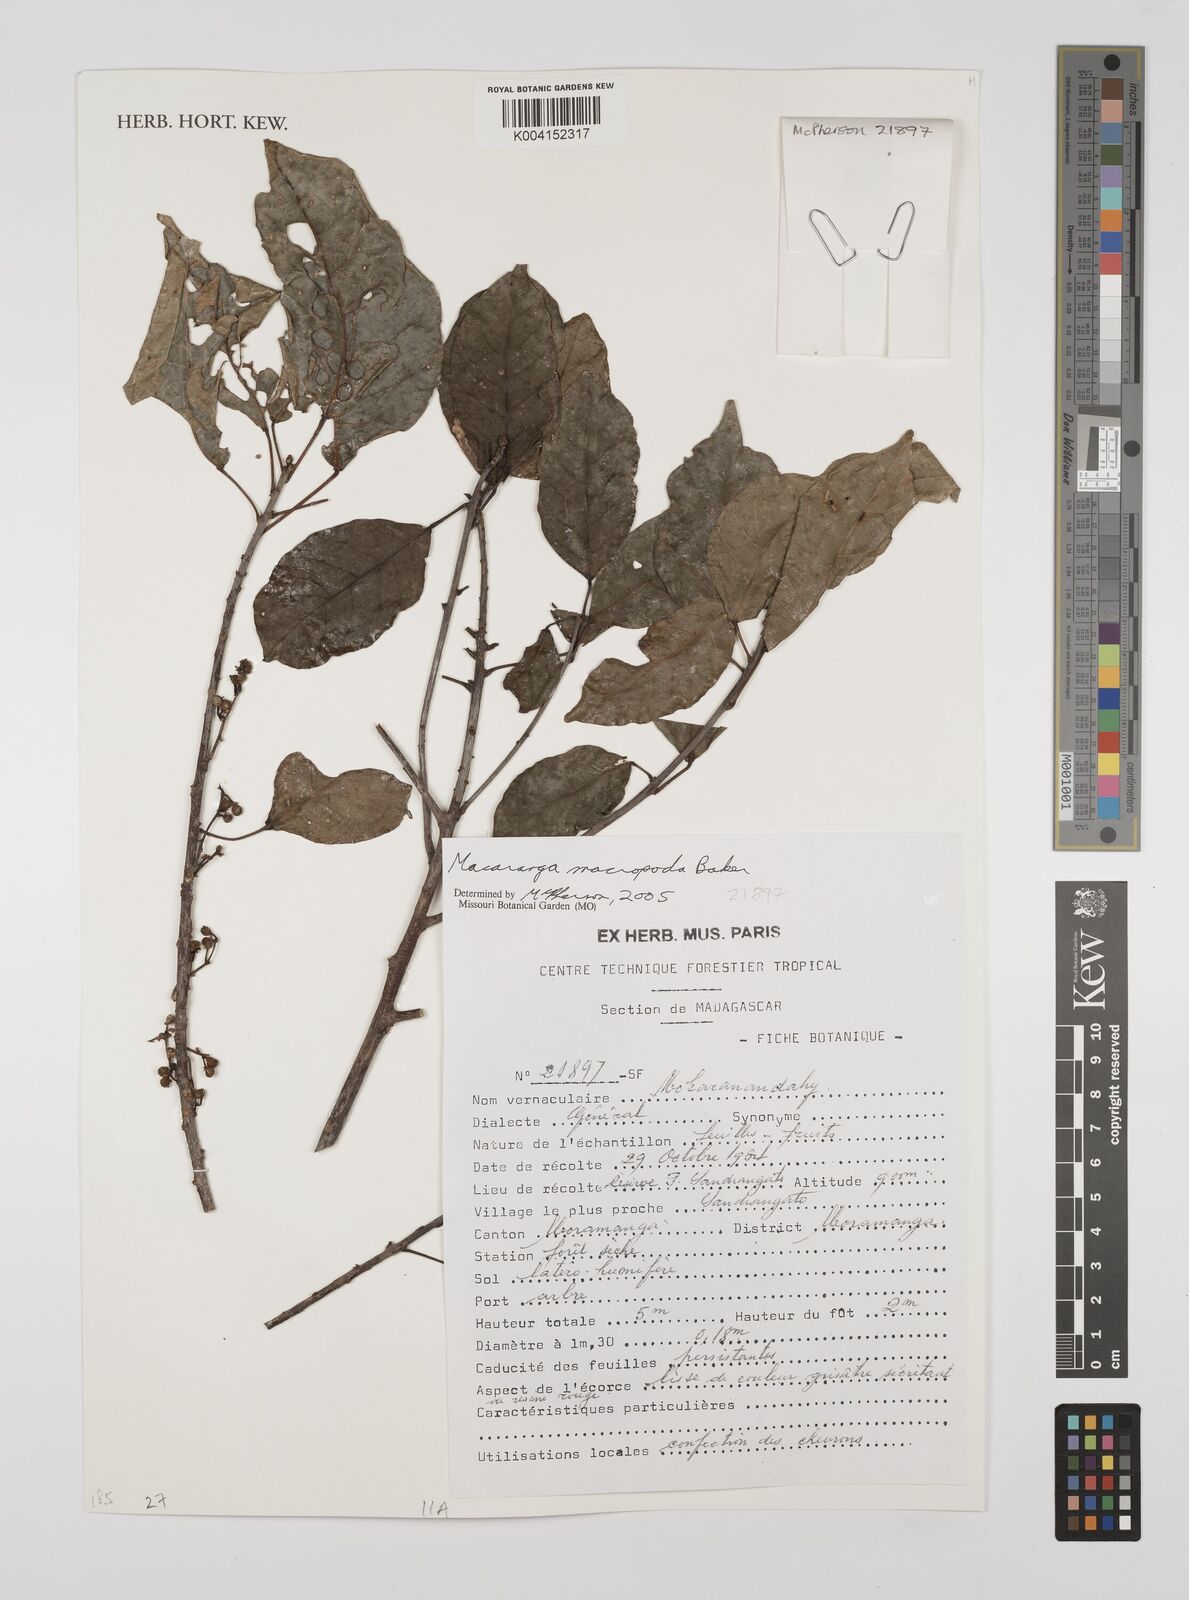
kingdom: Plantae
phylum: Tracheophyta
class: Magnoliopsida
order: Malpighiales
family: Euphorbiaceae
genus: Macaranga
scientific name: Macaranga macropoda
